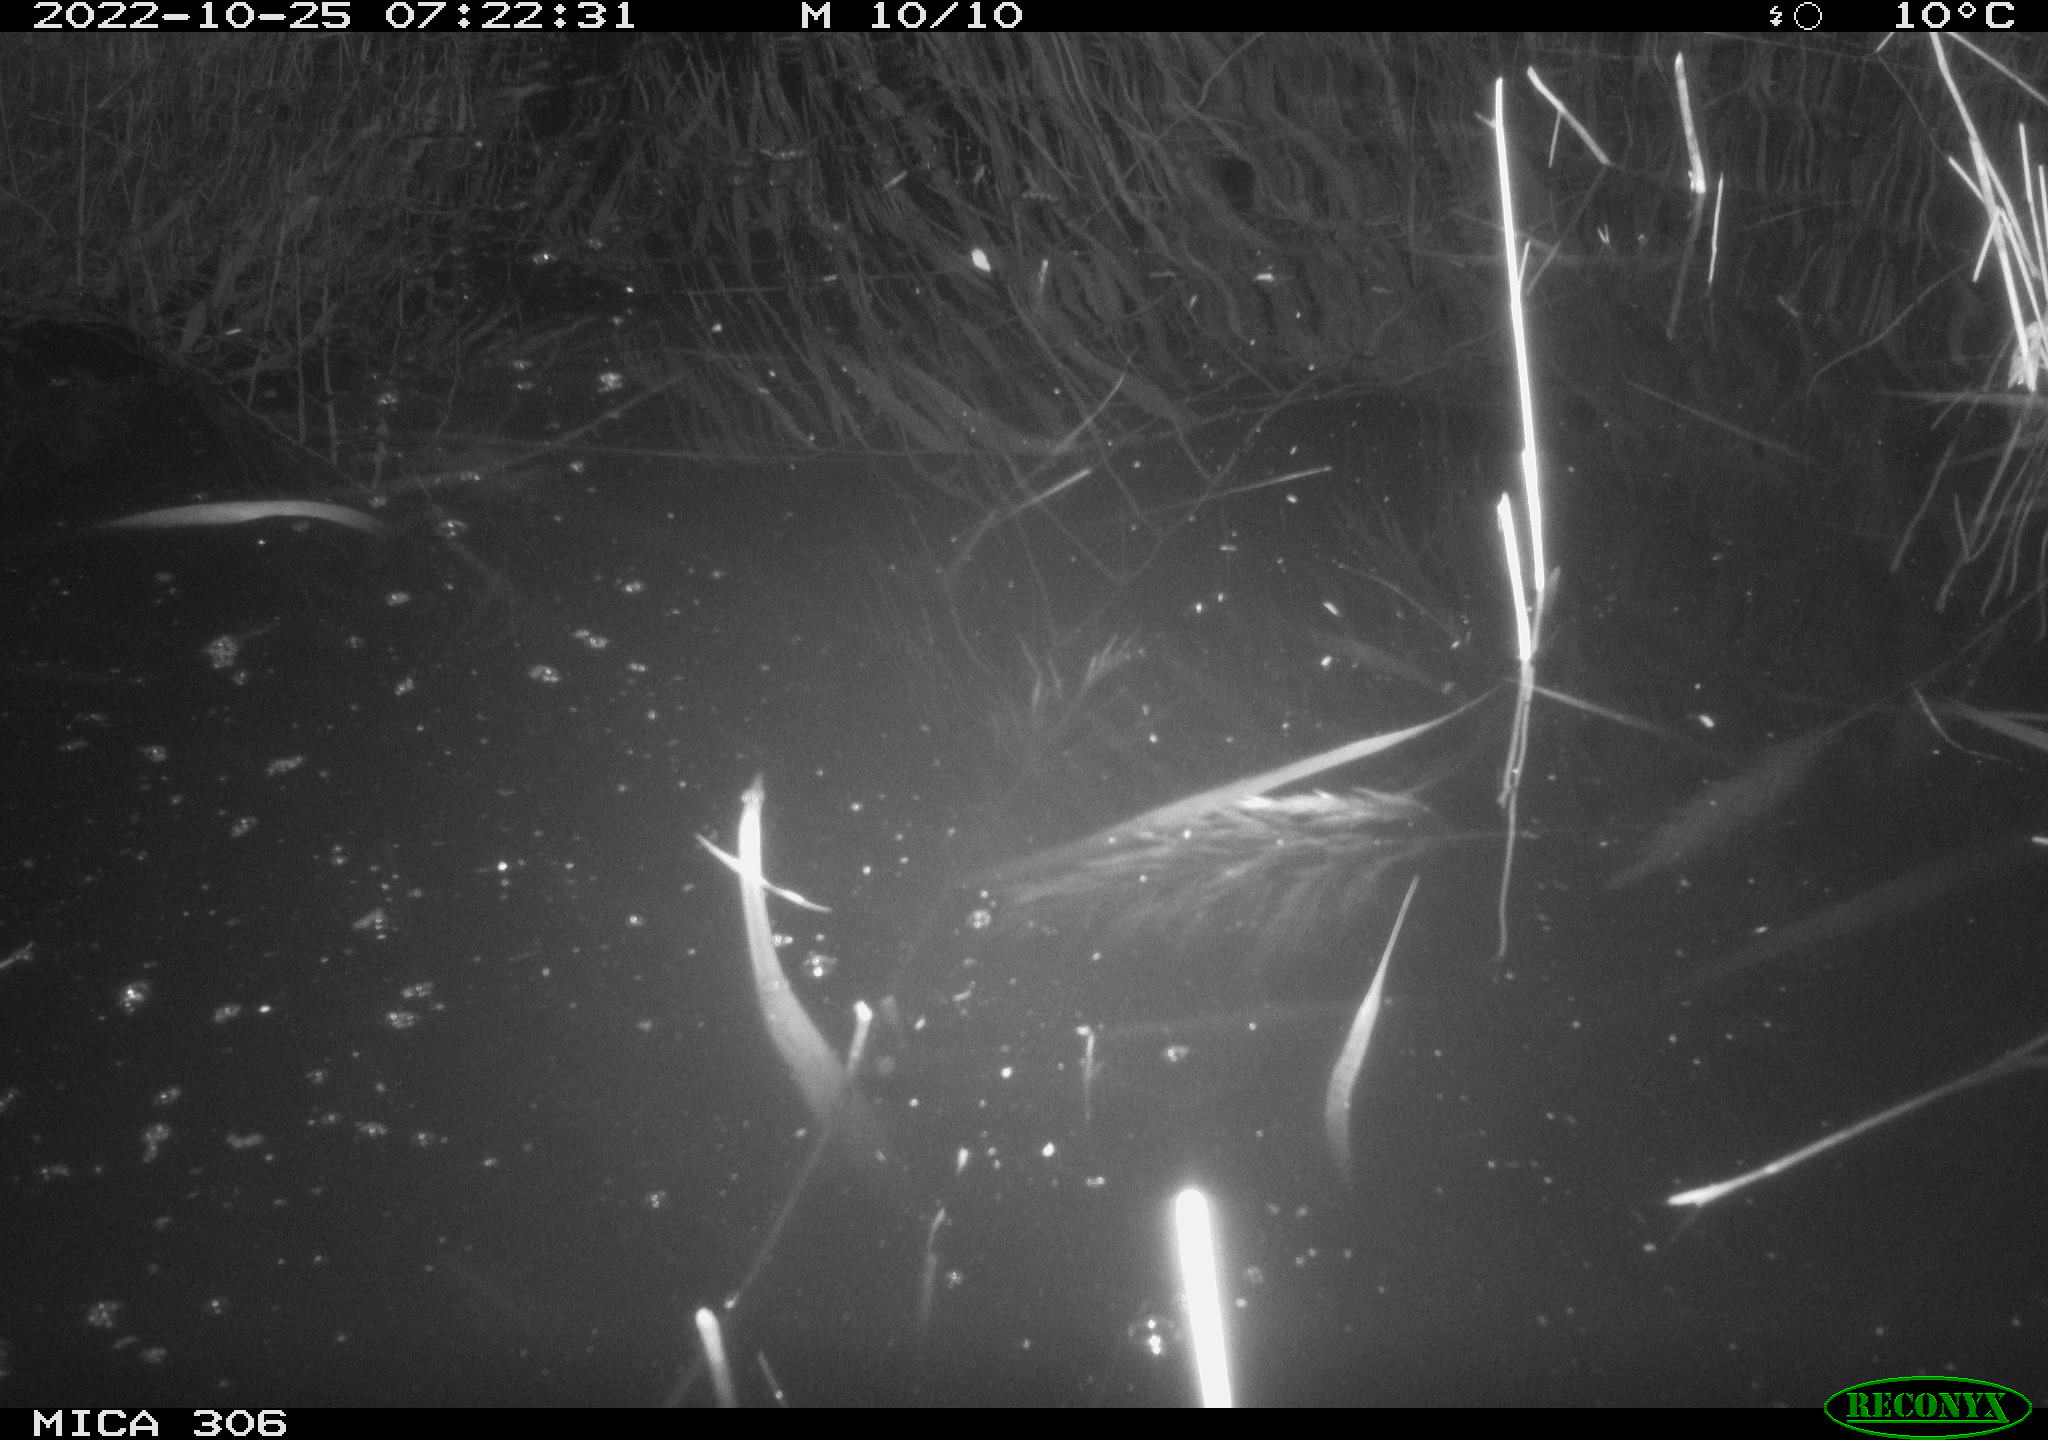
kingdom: Animalia
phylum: Chordata
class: Mammalia
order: Rodentia
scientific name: Rodentia
